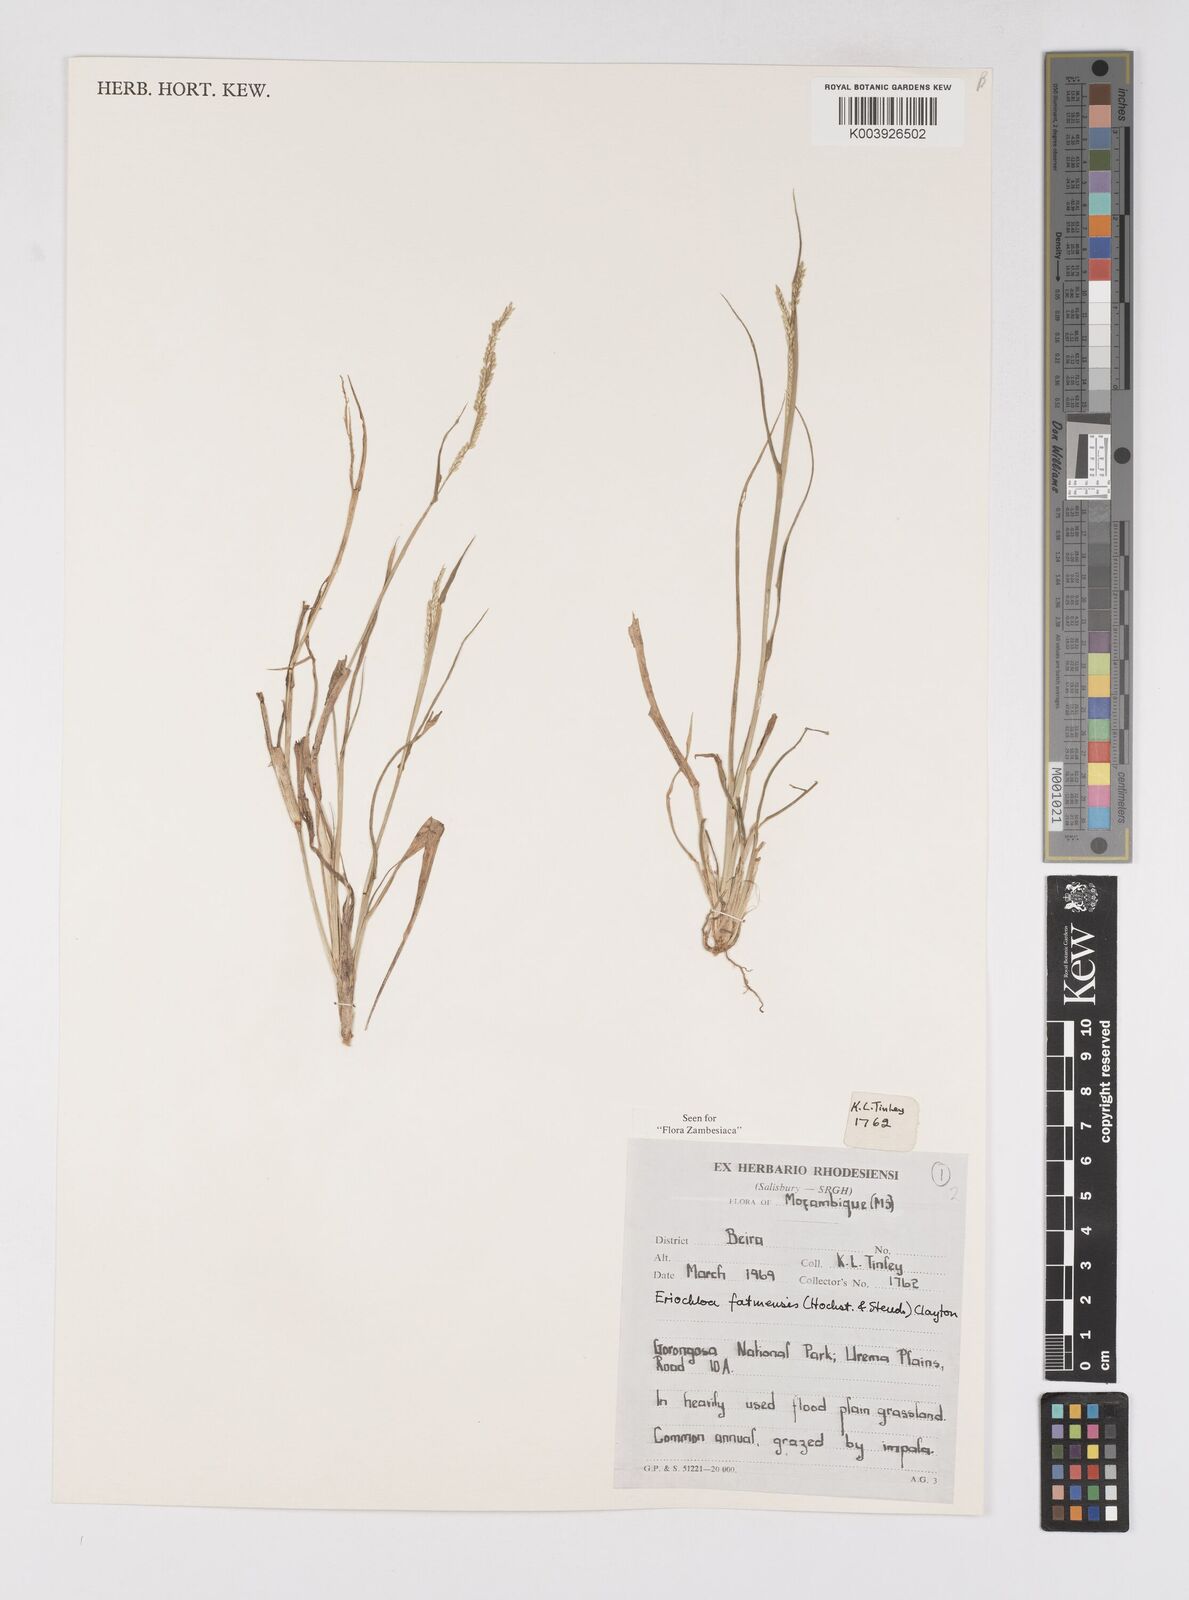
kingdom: Plantae
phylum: Tracheophyta
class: Liliopsida
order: Poales
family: Poaceae
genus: Eriochloa
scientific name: Eriochloa barbatus
